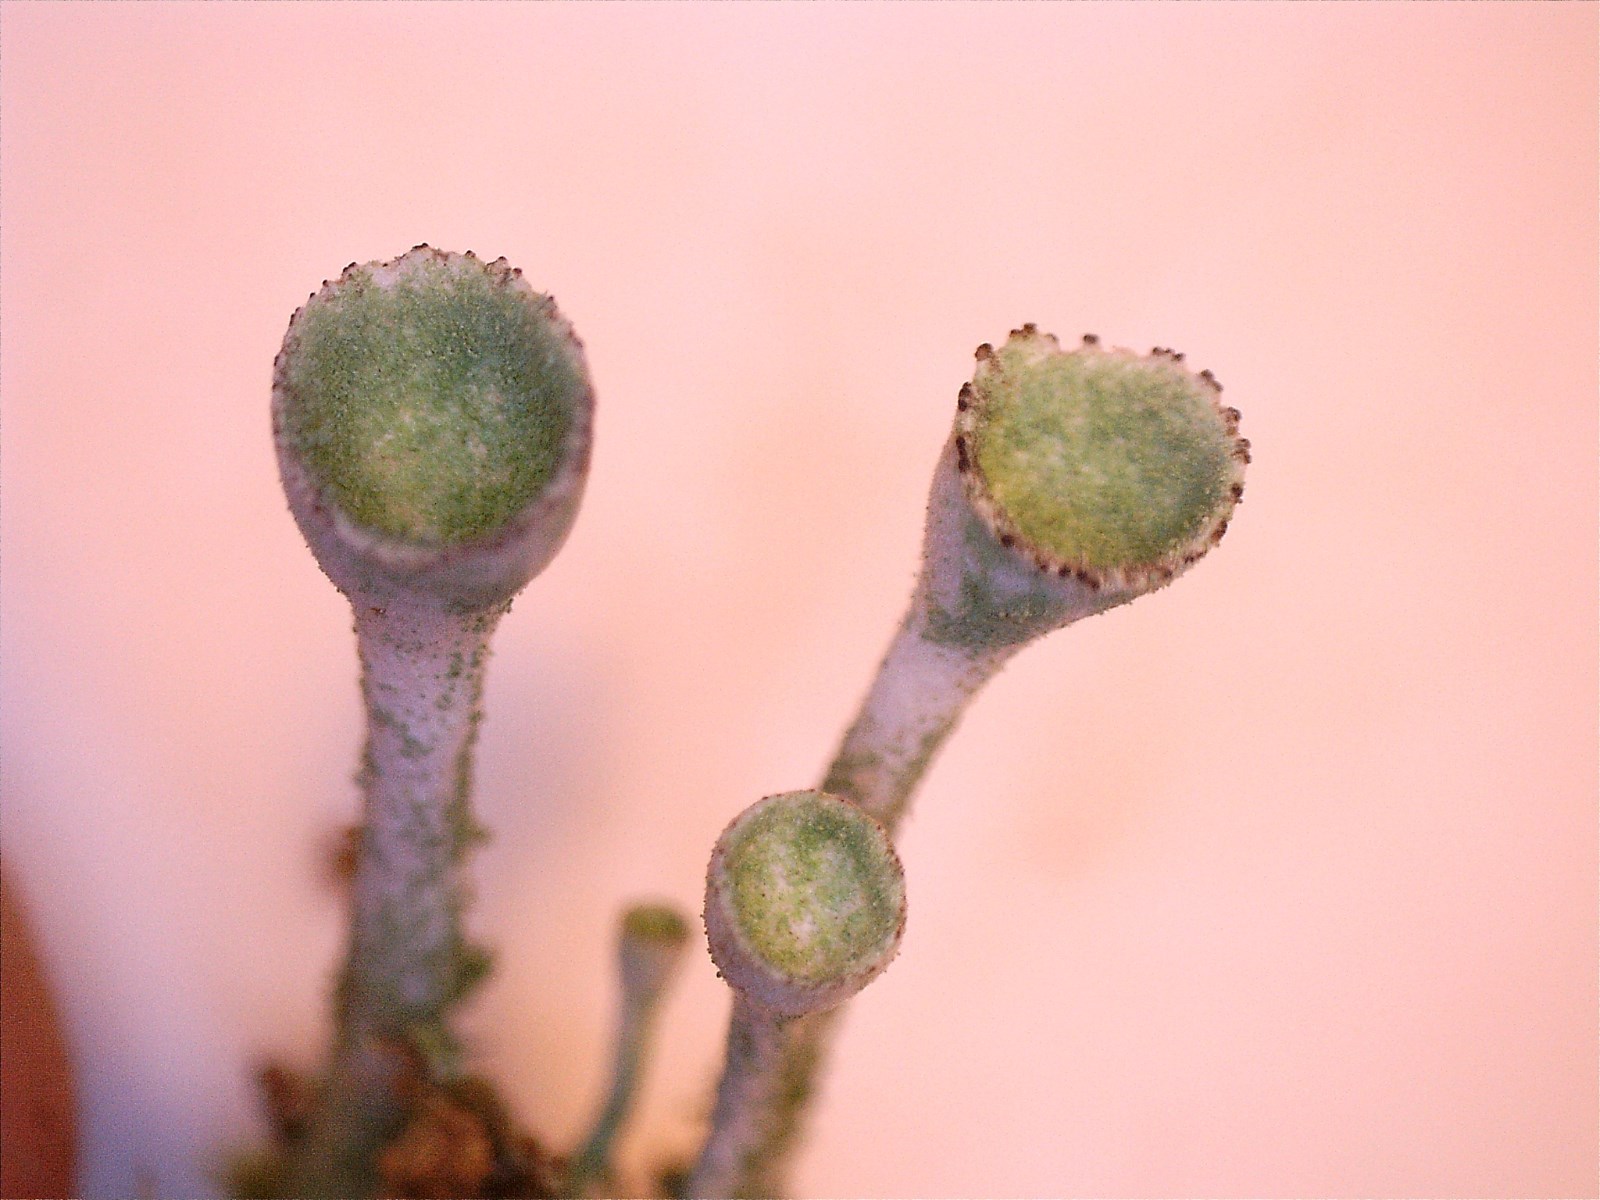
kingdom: Fungi
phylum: Ascomycota
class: Lecanoromycetes
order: Lecanorales
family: Cladoniaceae
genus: Cladonia
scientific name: Cladonia fimbriata
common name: bleggrøn bægerlav
